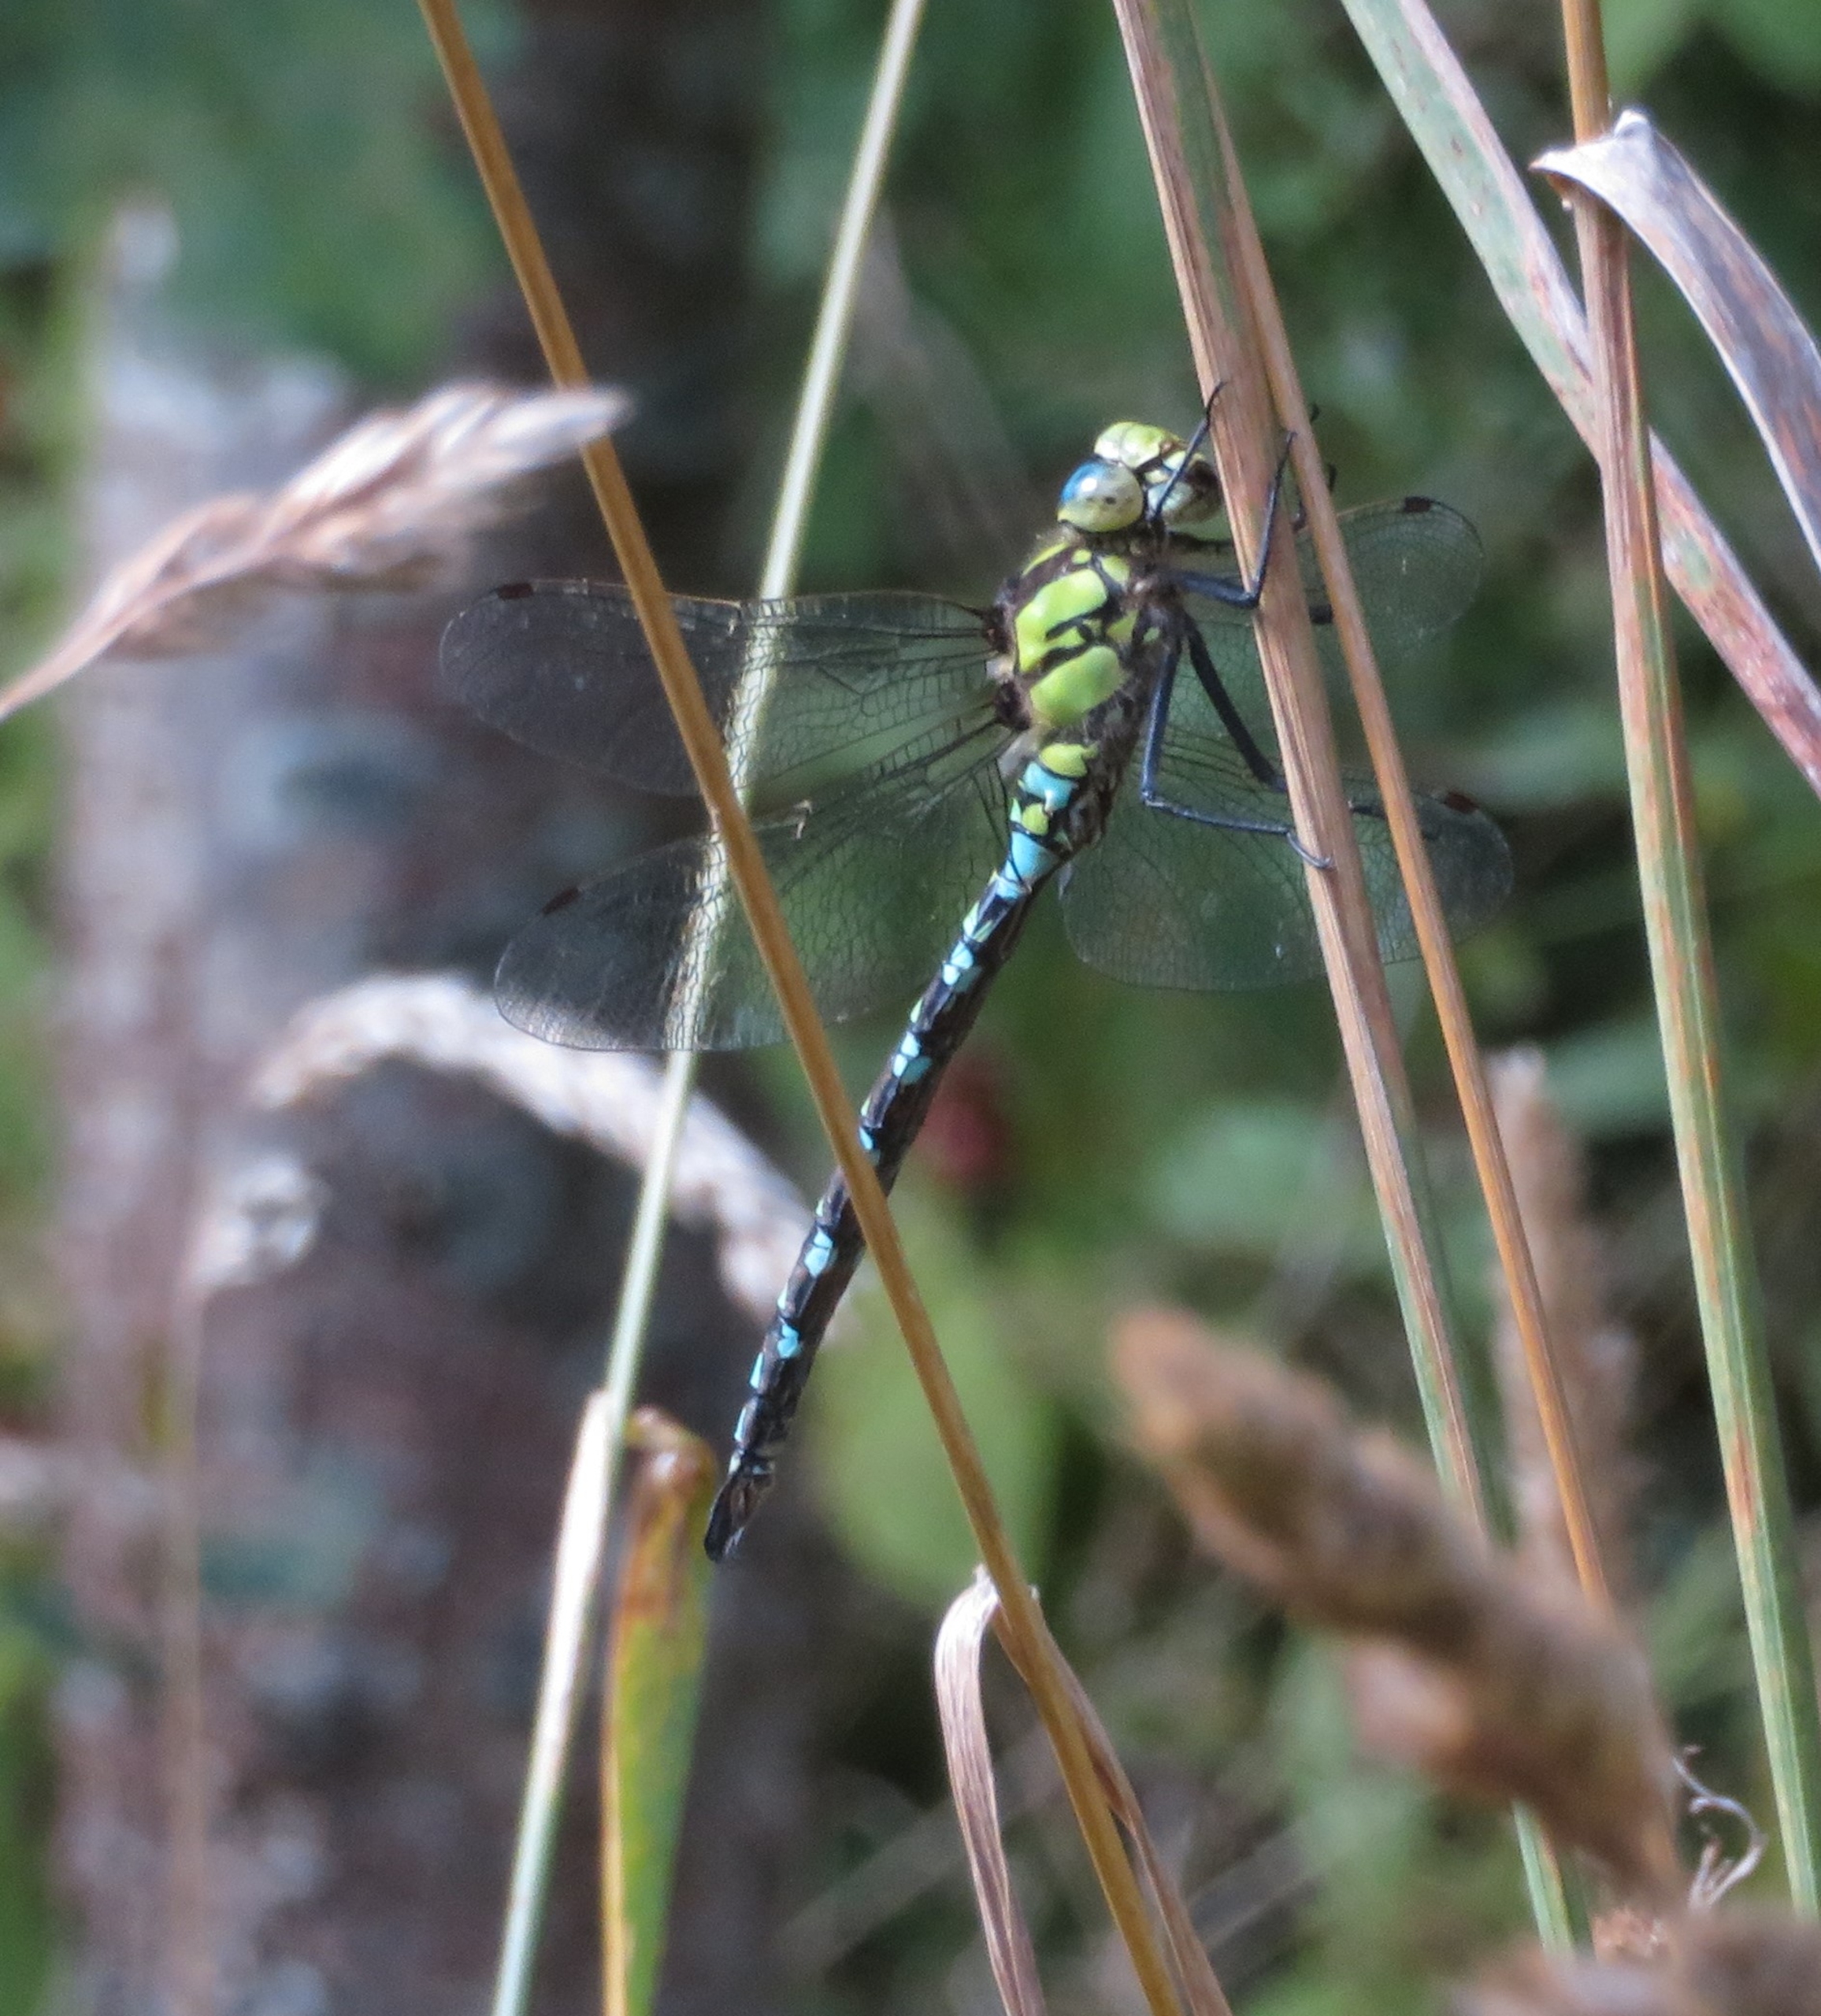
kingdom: Animalia
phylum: Arthropoda
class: Insecta
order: Odonata
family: Aeshnidae
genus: Aeshna
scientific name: Aeshna cyanea
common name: Blå mosaikguldsmed
